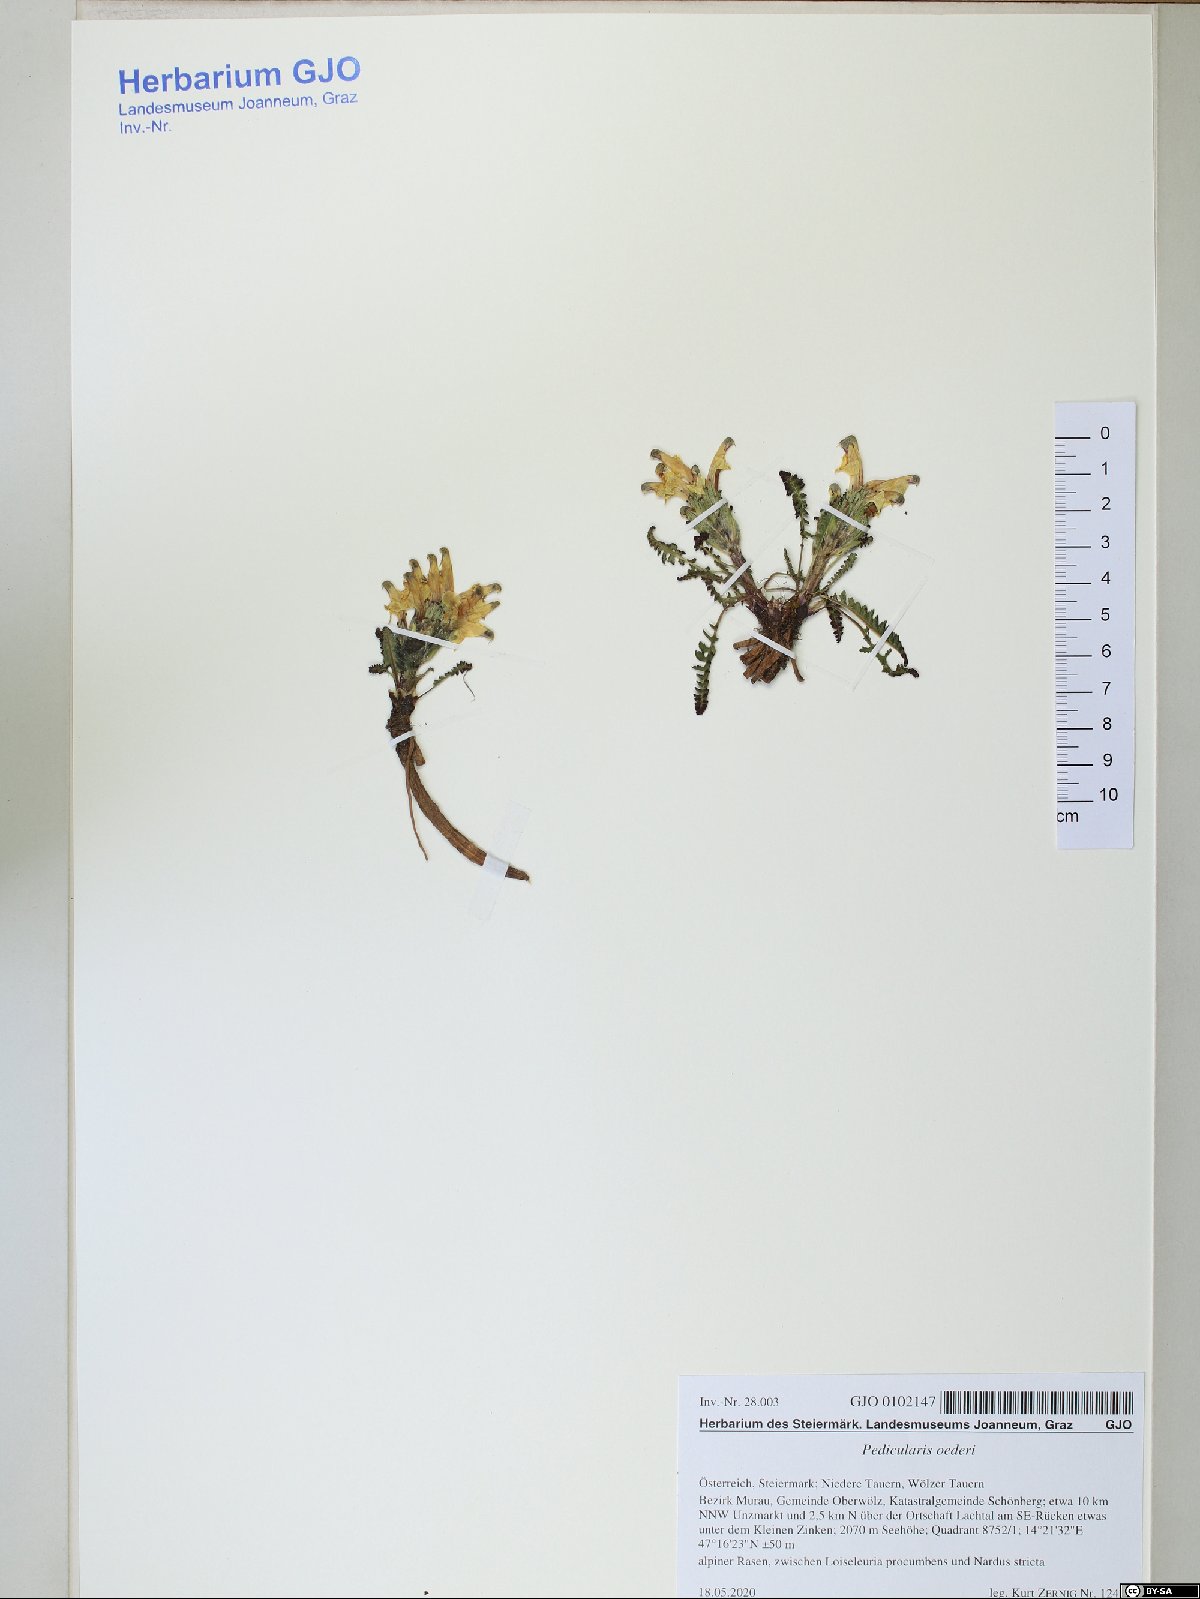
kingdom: Plantae
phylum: Tracheophyta
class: Magnoliopsida
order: Lamiales
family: Orobanchaceae
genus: Pedicularis
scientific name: Pedicularis oederi
